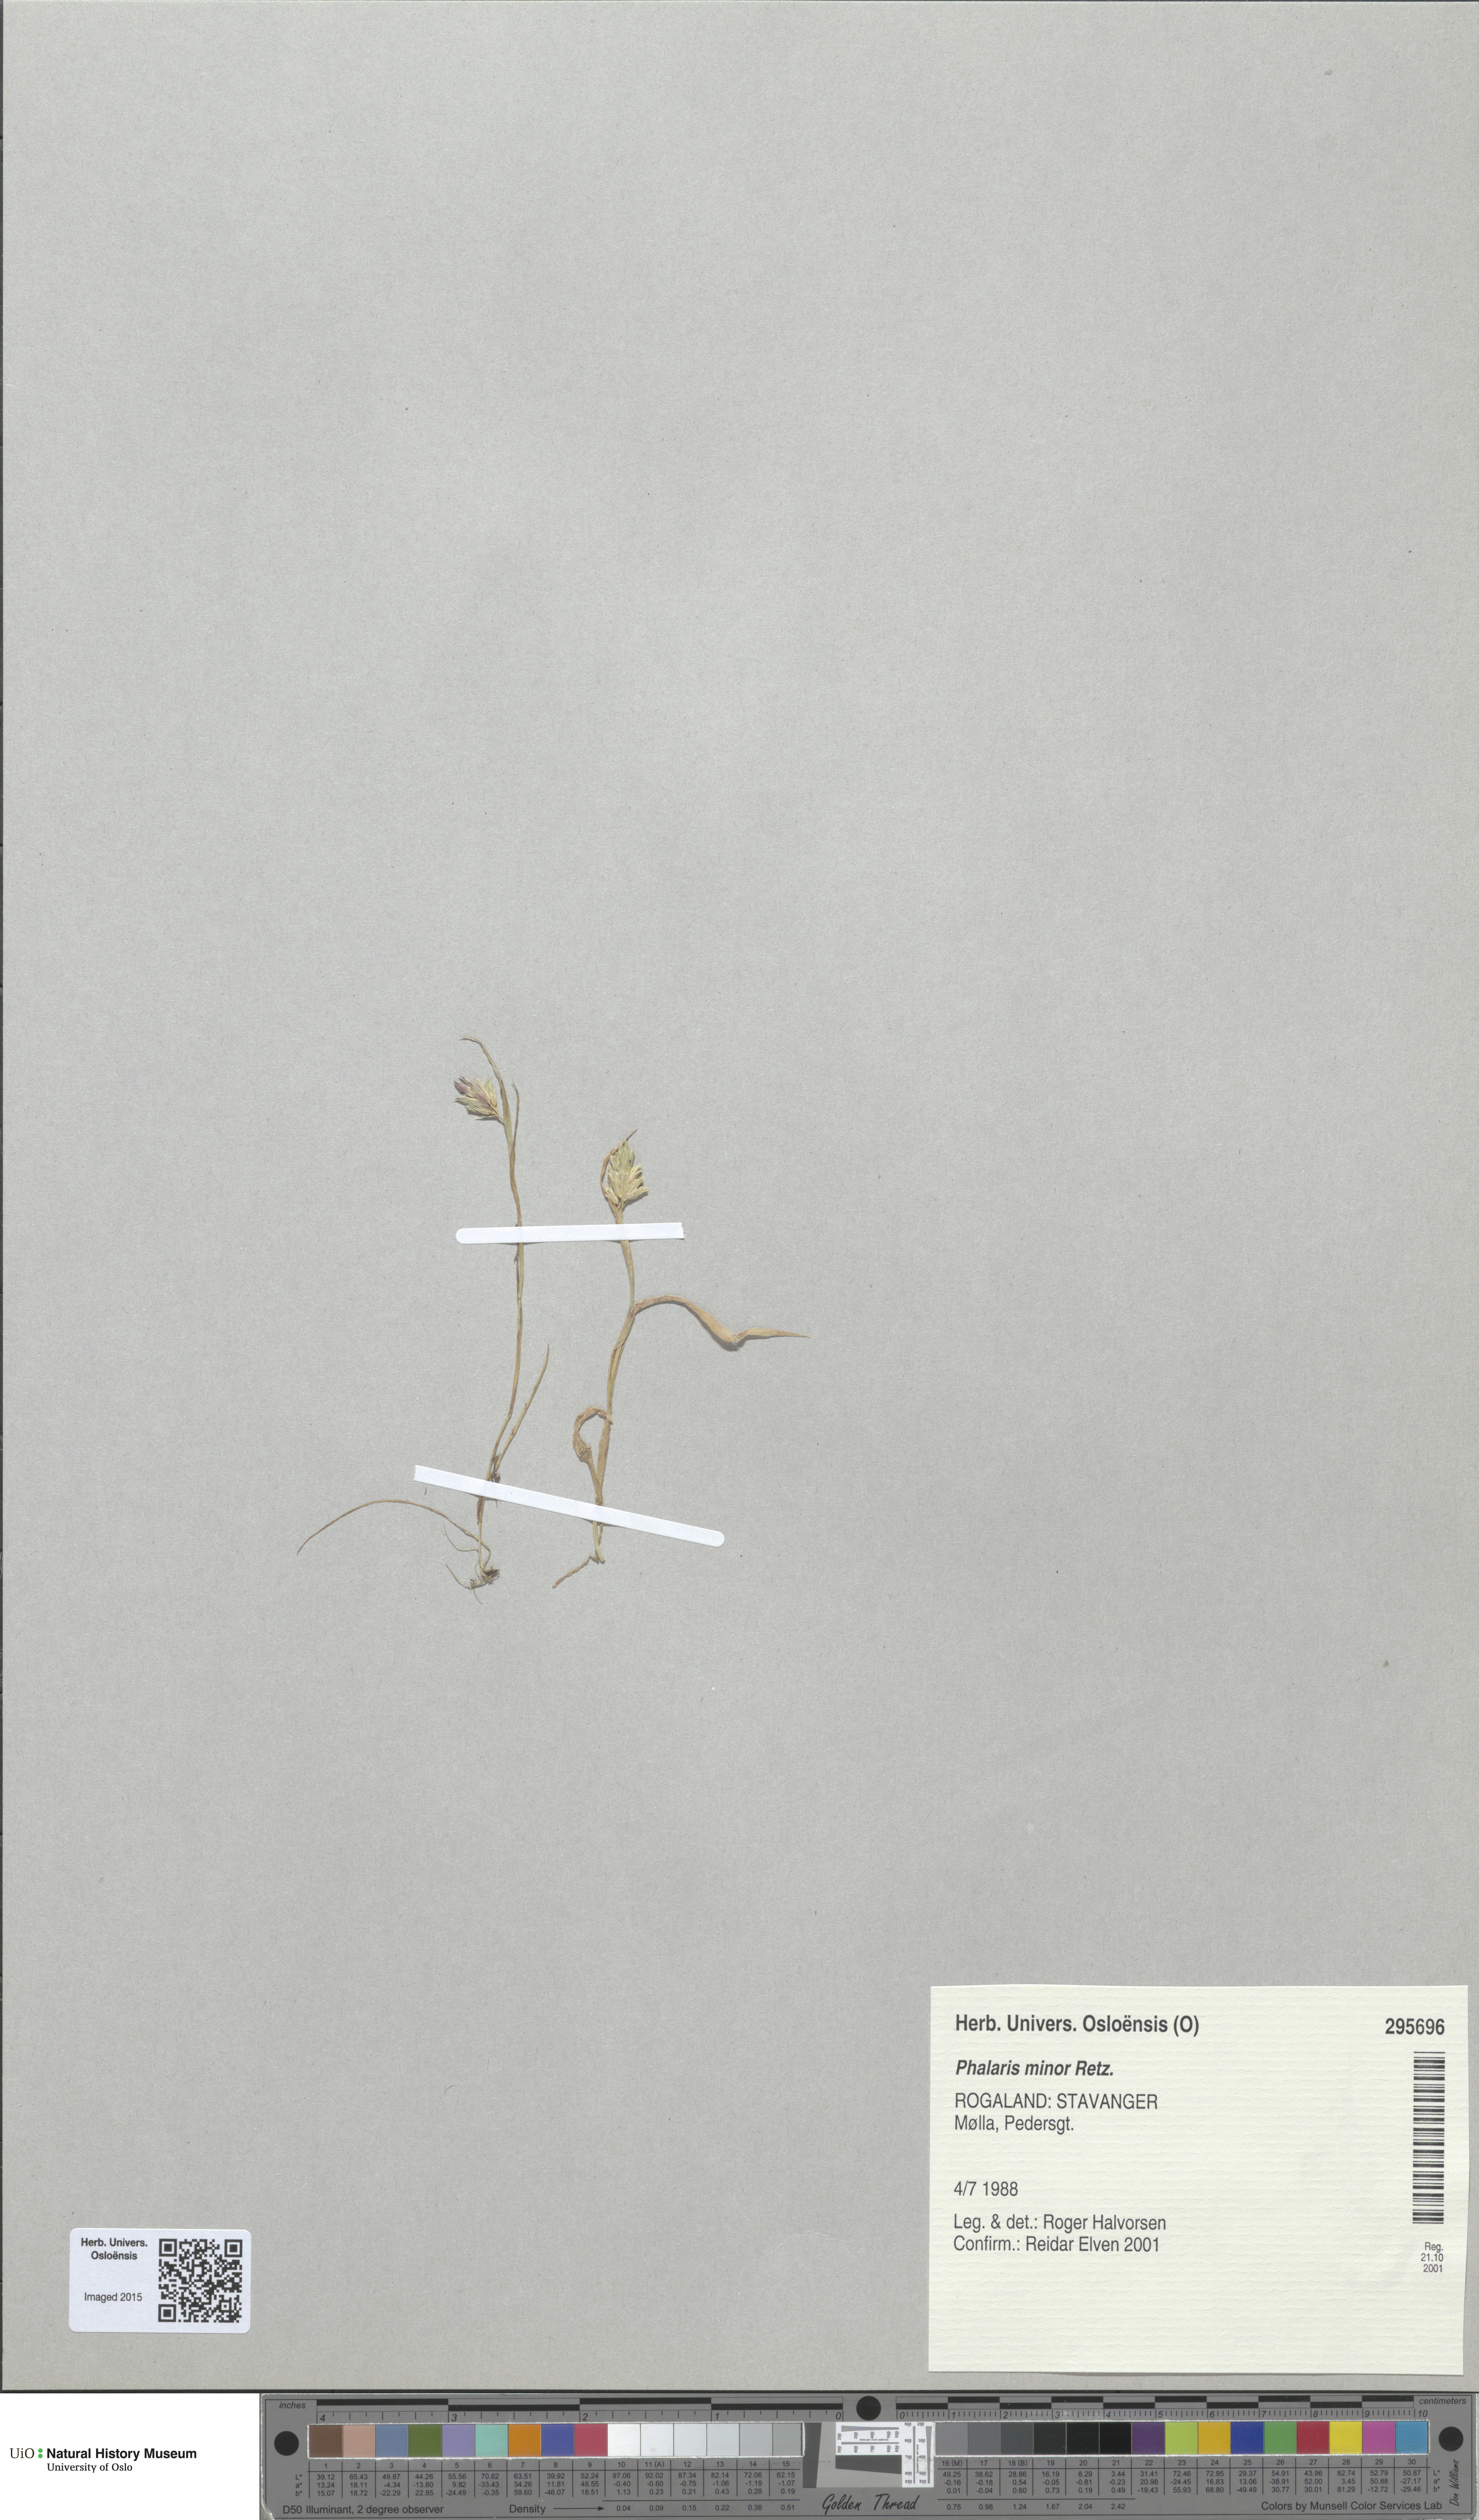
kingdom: Plantae
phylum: Tracheophyta
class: Liliopsida
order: Poales
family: Poaceae
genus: Phalaris
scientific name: Phalaris minor
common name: Littleseed canarygrass
